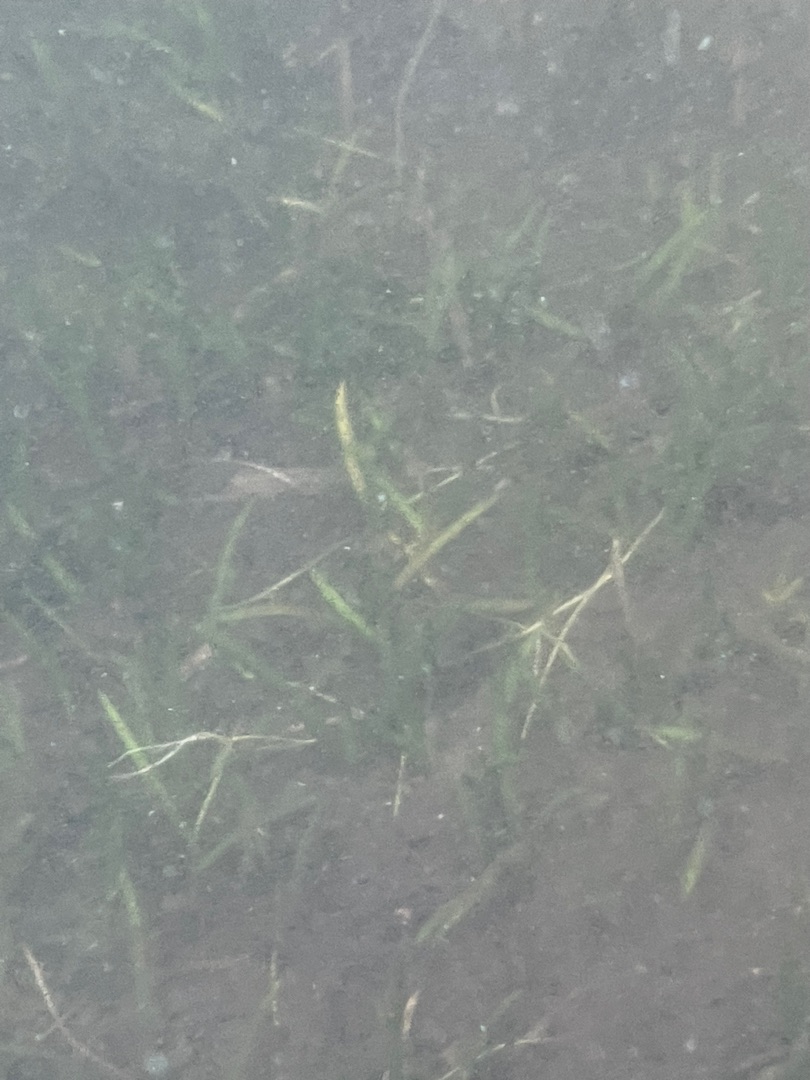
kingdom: Plantae
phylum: Tracheophyta
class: Magnoliopsida
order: Lamiales
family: Plantaginaceae
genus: Littorella
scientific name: Littorella uniflora
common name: Strandbo
